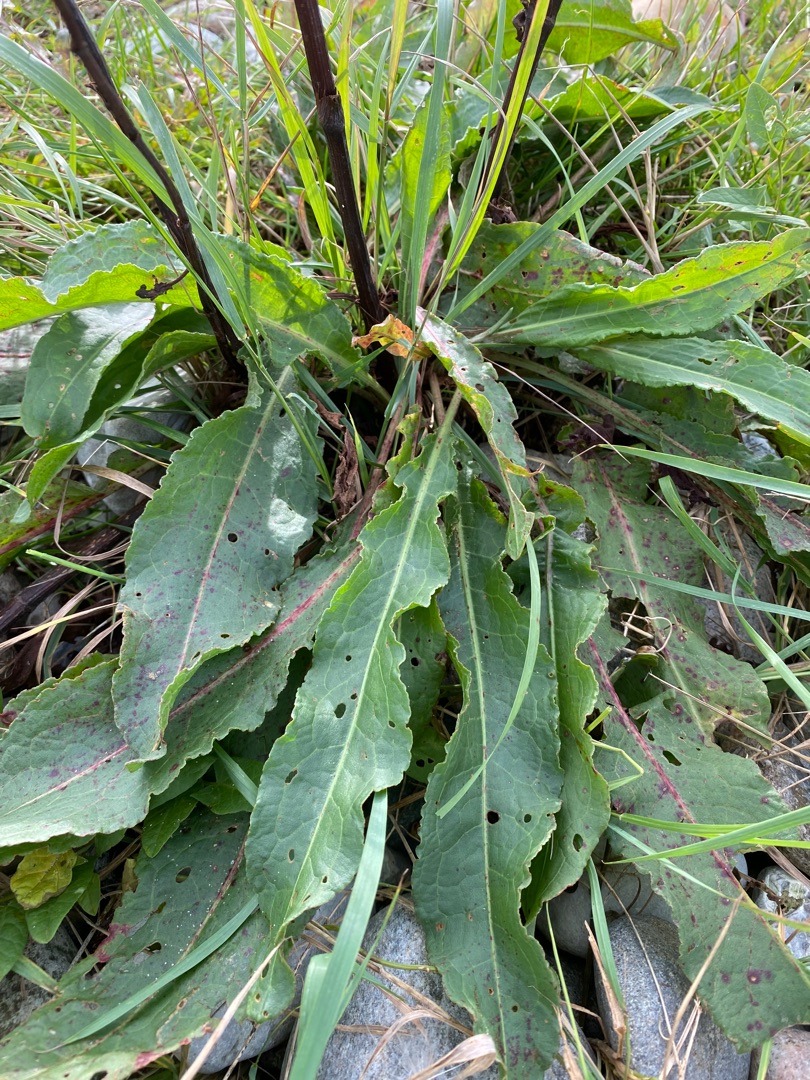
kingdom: Plantae
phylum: Tracheophyta
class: Magnoliopsida
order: Caryophyllales
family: Polygonaceae
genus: Rumex
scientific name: Rumex crispus
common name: Kruset skræppe
